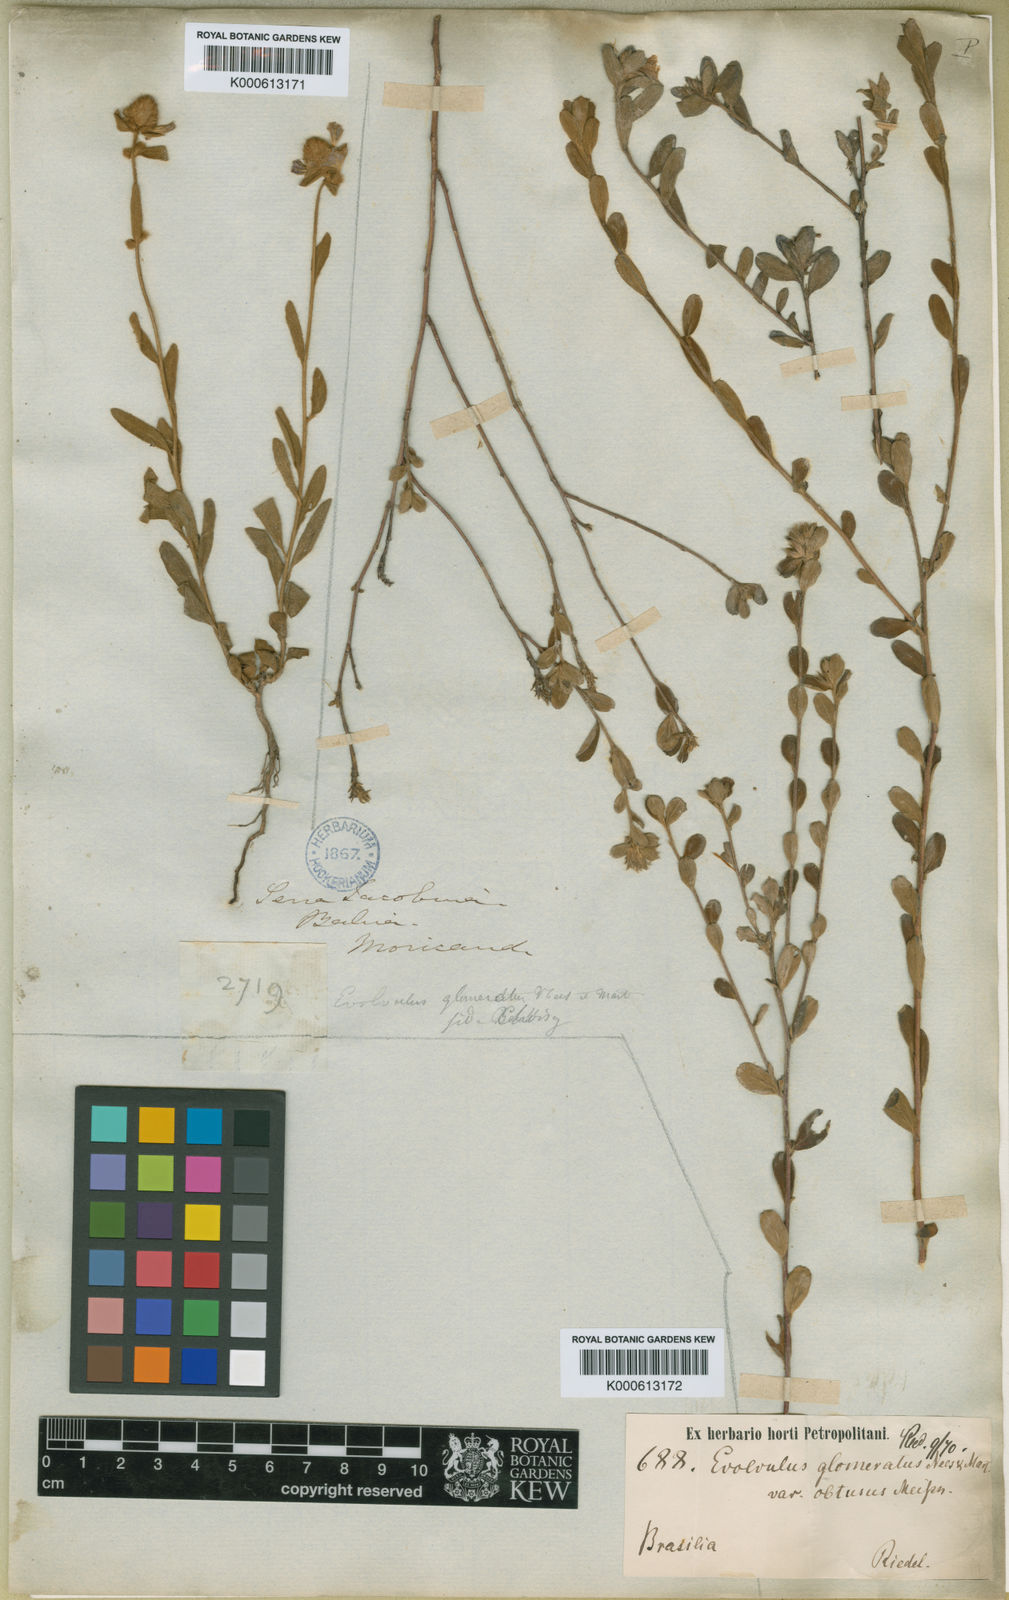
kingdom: Plantae
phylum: Tracheophyta
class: Magnoliopsida
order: Solanales
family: Convolvulaceae
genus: Evolvulus
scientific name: Evolvulus glomeratus
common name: Brazilian dwarf morning-glory
